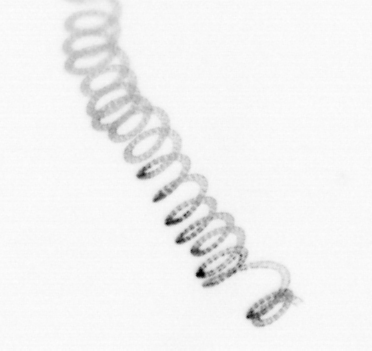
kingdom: Chromista
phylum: Ochrophyta
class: Bacillariophyceae
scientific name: Bacillariophyceae
